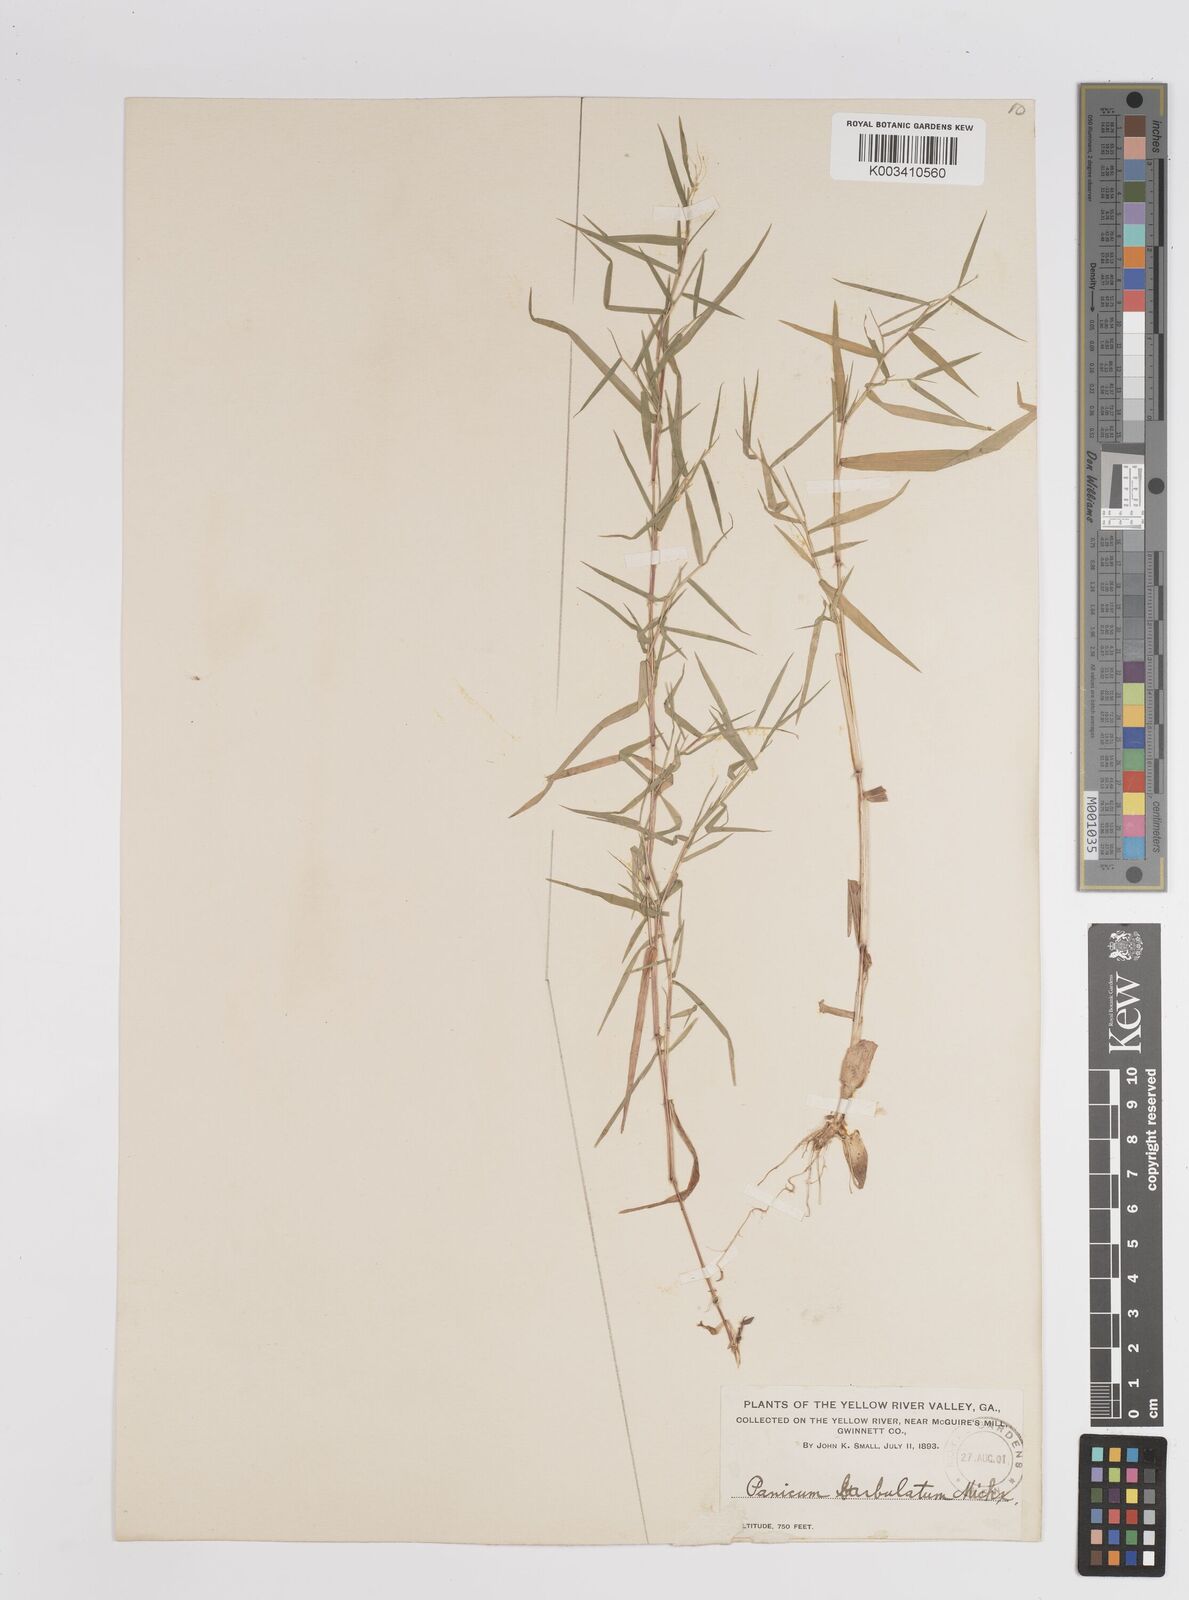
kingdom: Plantae
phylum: Tracheophyta
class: Liliopsida
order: Poales
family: Poaceae
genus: Dichanthelium
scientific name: Dichanthelium dichotomum
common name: Cypress panicgrass
